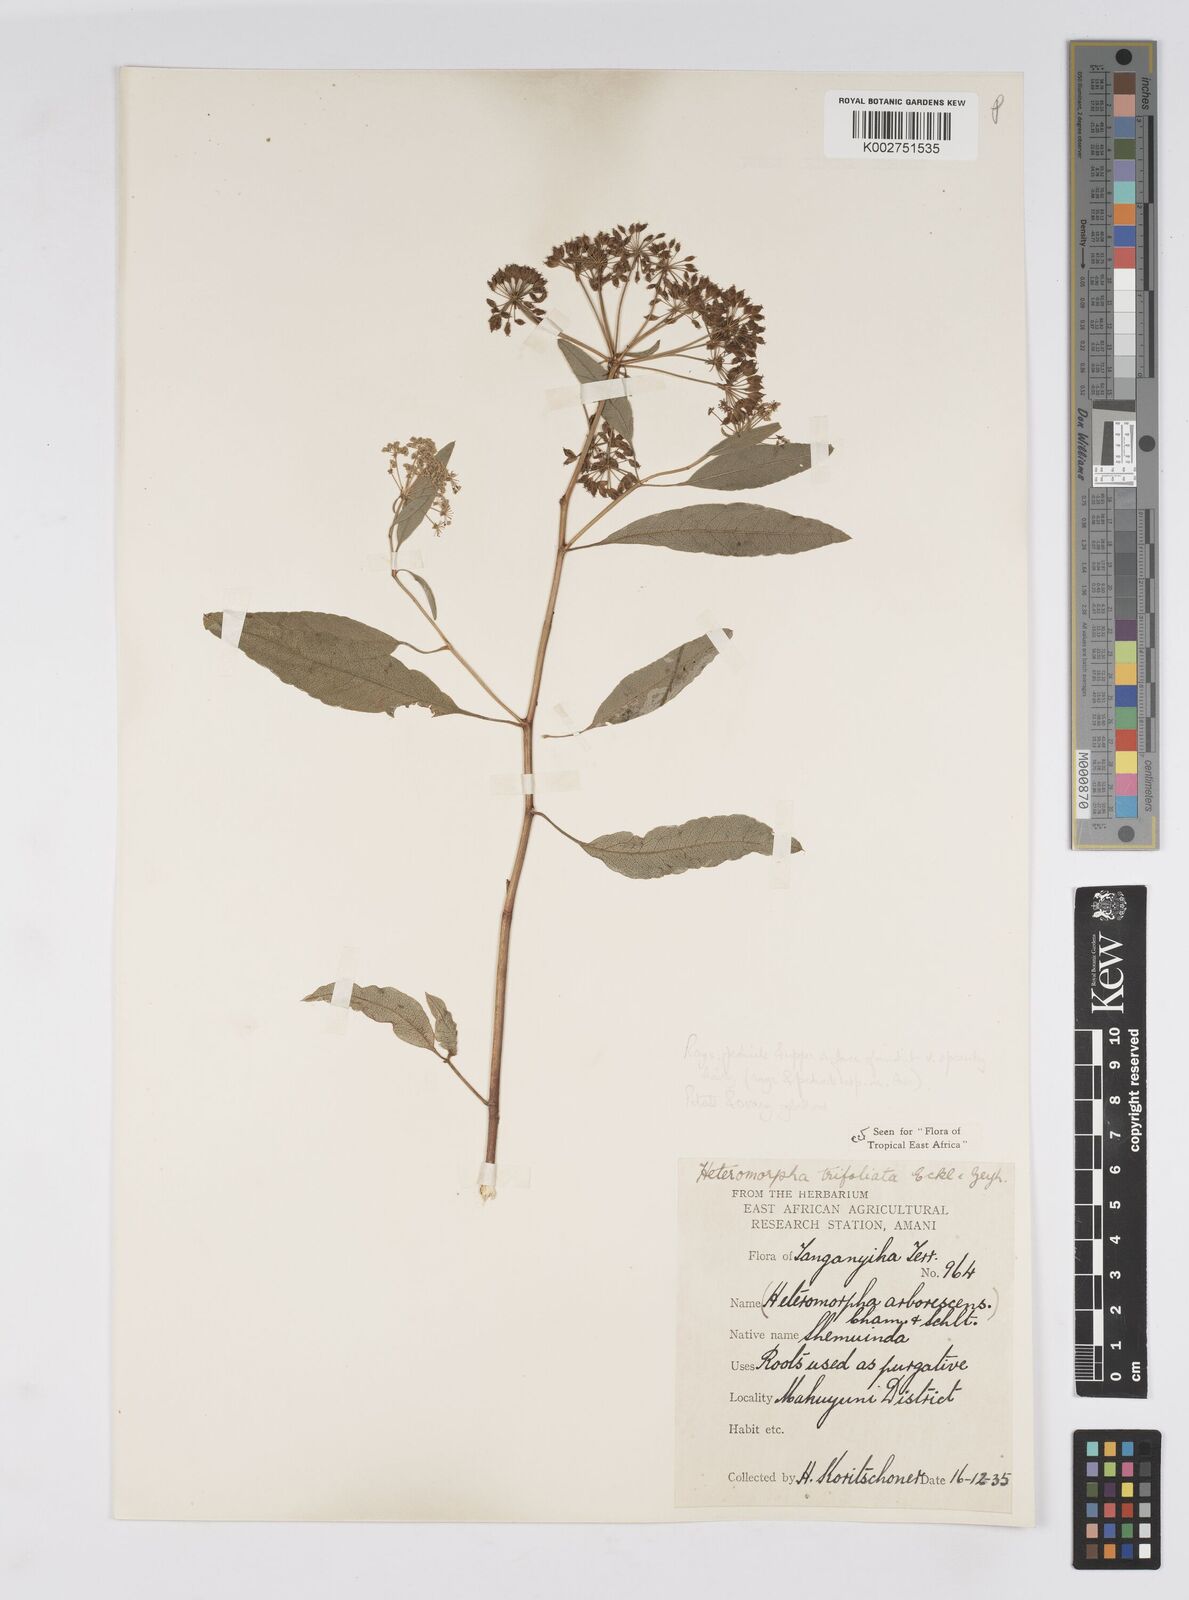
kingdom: Plantae
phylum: Tracheophyta
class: Magnoliopsida
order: Apiales
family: Apiaceae
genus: Heteromorpha
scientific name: Heteromorpha arborescens
